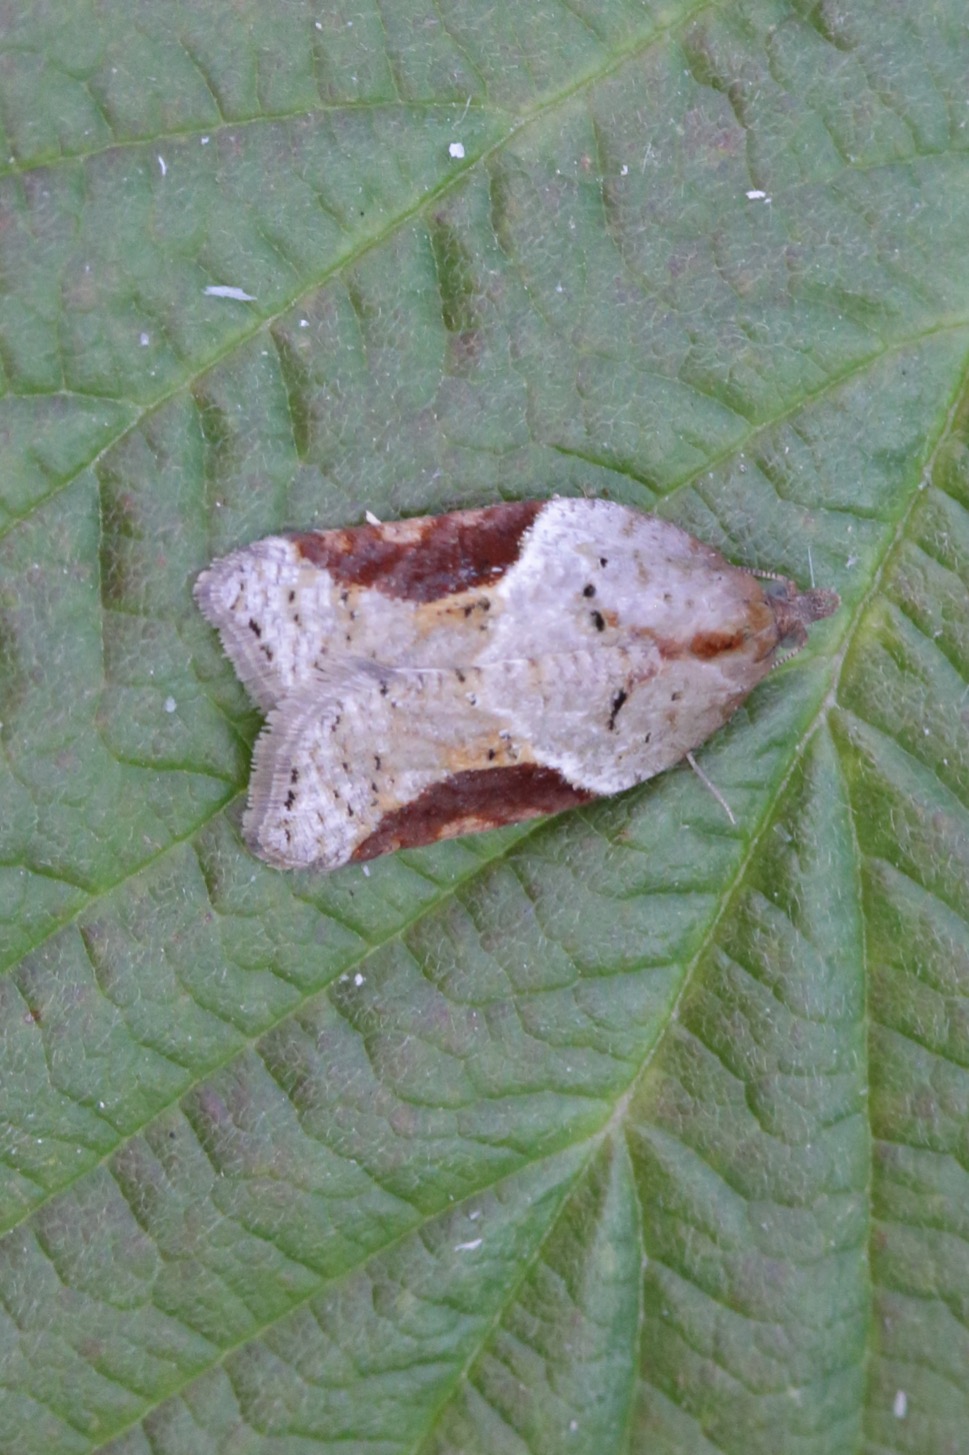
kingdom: Animalia
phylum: Arthropoda
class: Insecta
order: Lepidoptera
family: Tortricidae
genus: Acleris
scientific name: Acleris laterana
